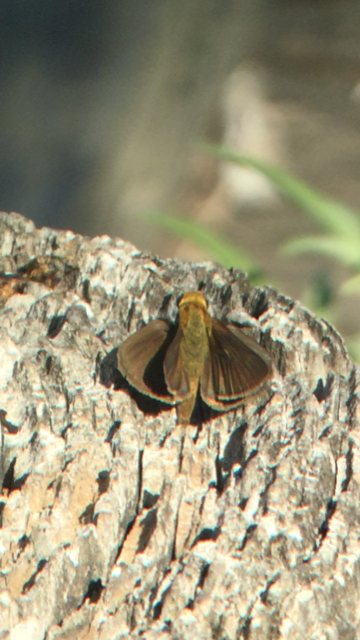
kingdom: Animalia
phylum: Arthropoda
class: Insecta
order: Lepidoptera
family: Hesperiidae
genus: Euphyes
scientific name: Euphyes vestris
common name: Dun Skipper
